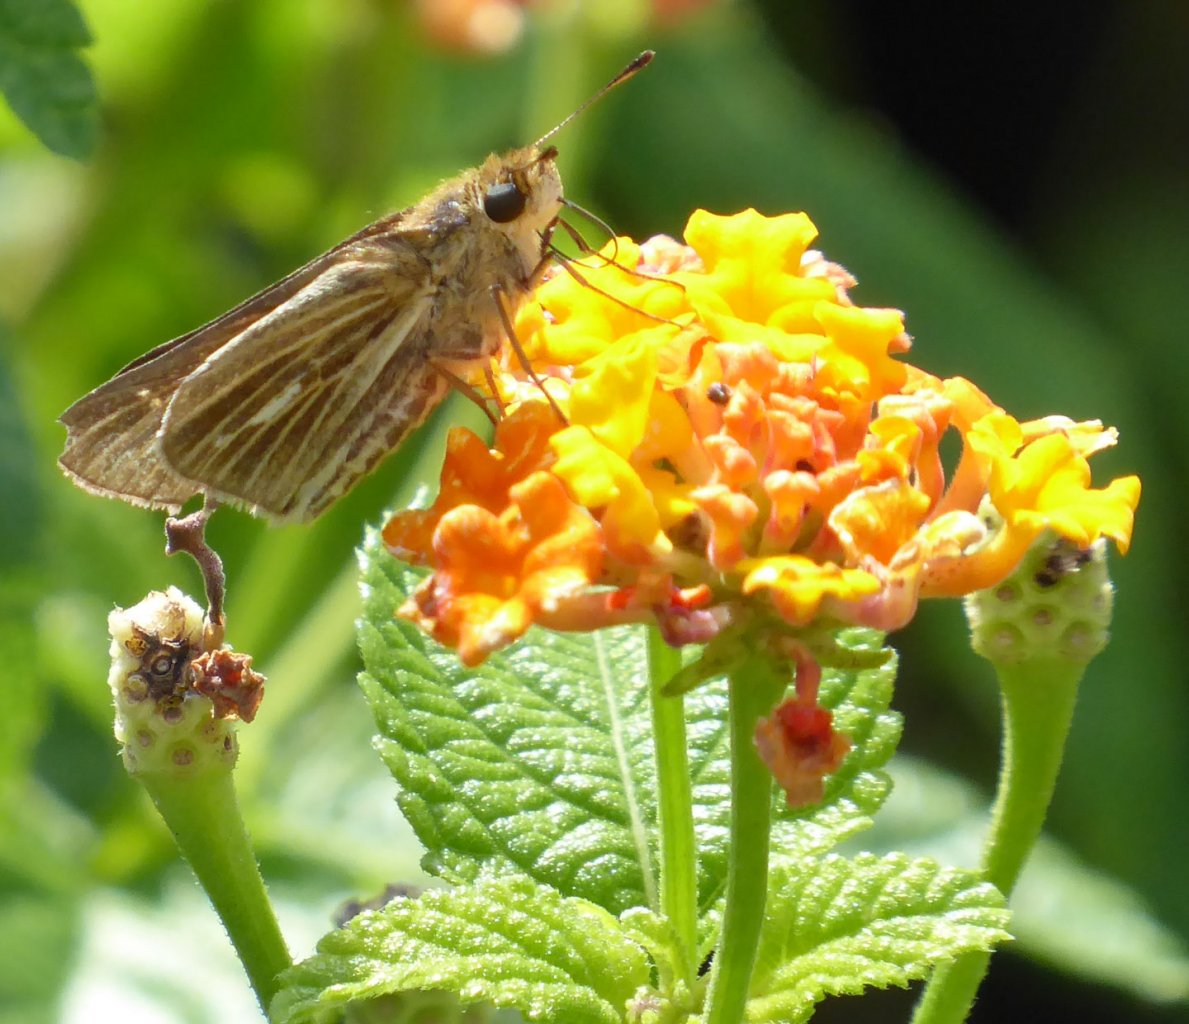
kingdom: Animalia
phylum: Arthropoda
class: Insecta
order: Lepidoptera
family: Hesperiidae
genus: Panoquina
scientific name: Panoquina panoquin
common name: Salt Marsh Skipper
